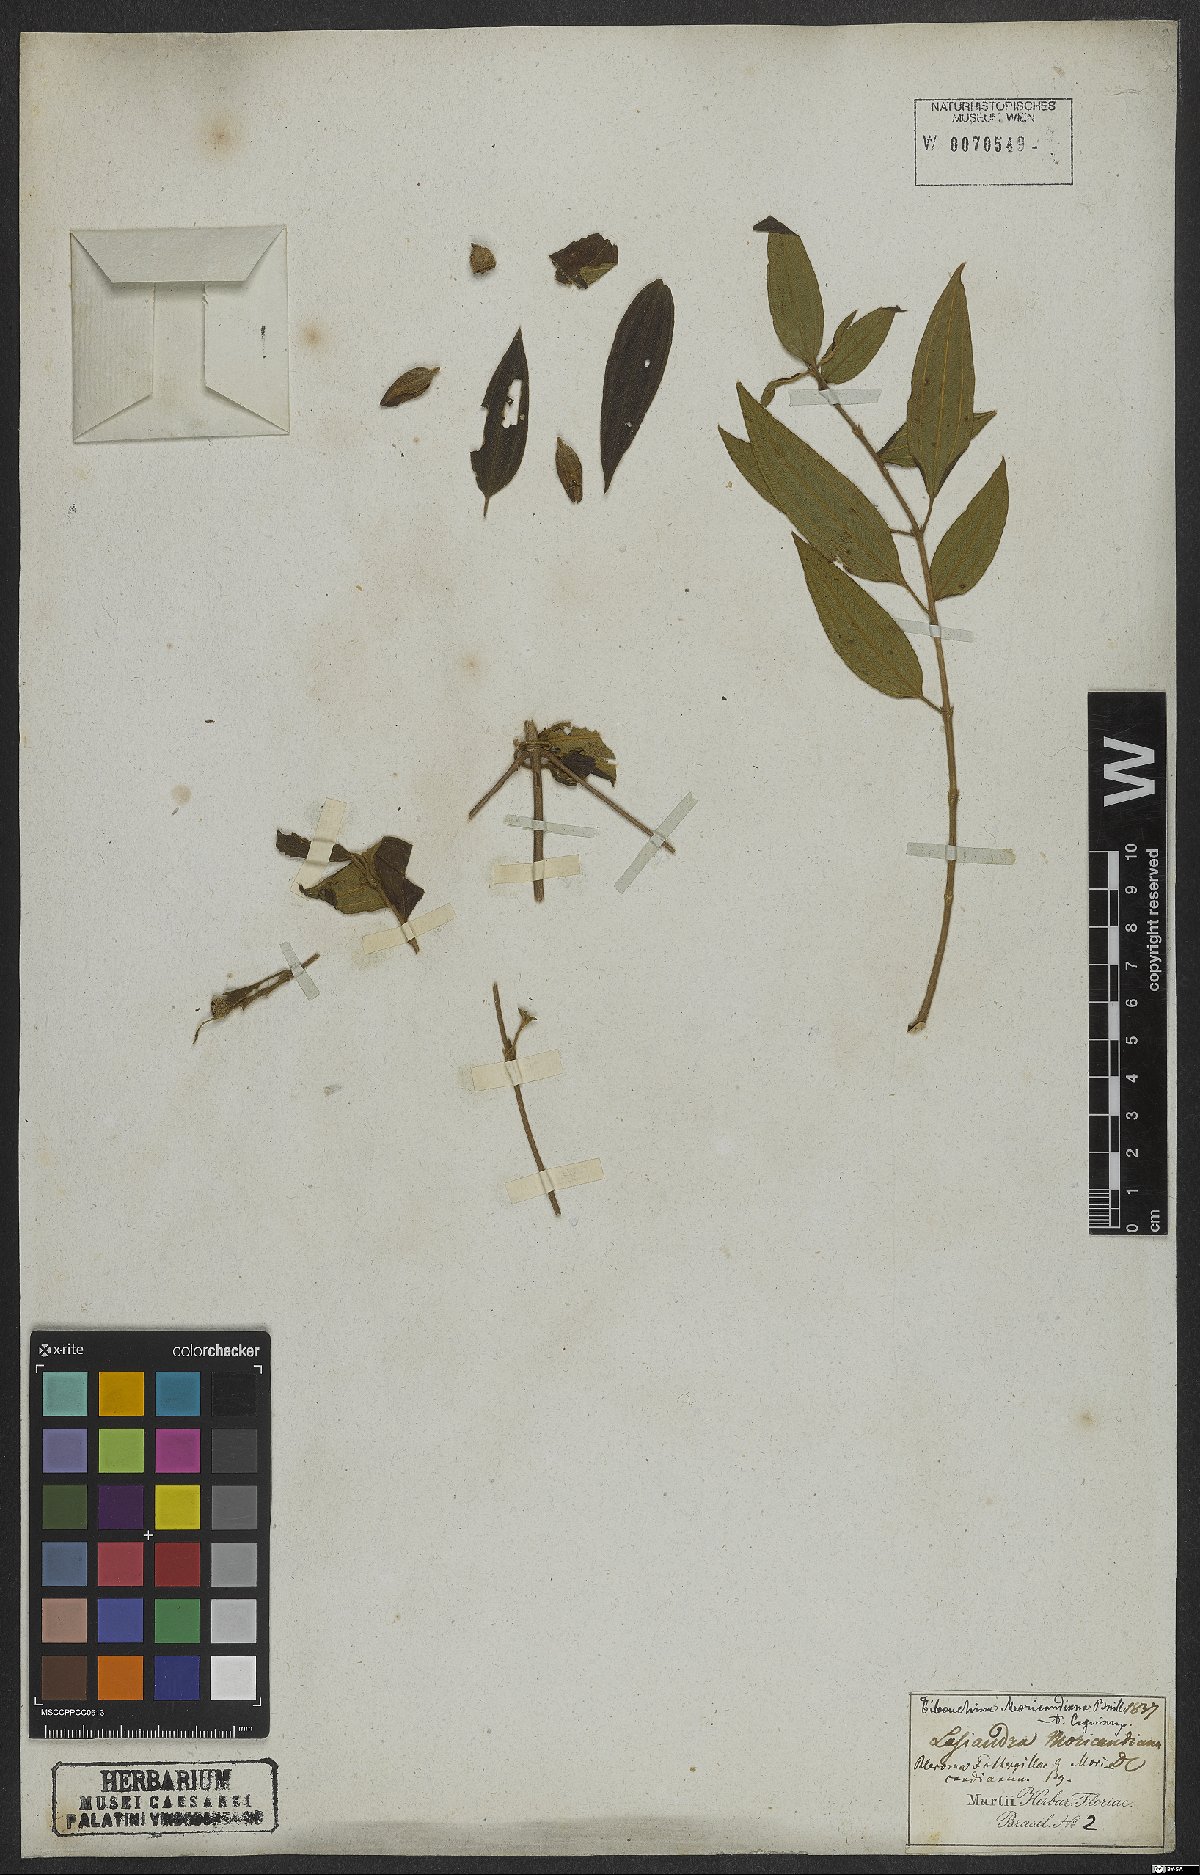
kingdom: Plantae
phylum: Tracheophyta
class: Magnoliopsida
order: Myrtales
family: Melastomataceae
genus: Pleroma
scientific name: Pleroma gaudichaudianum
